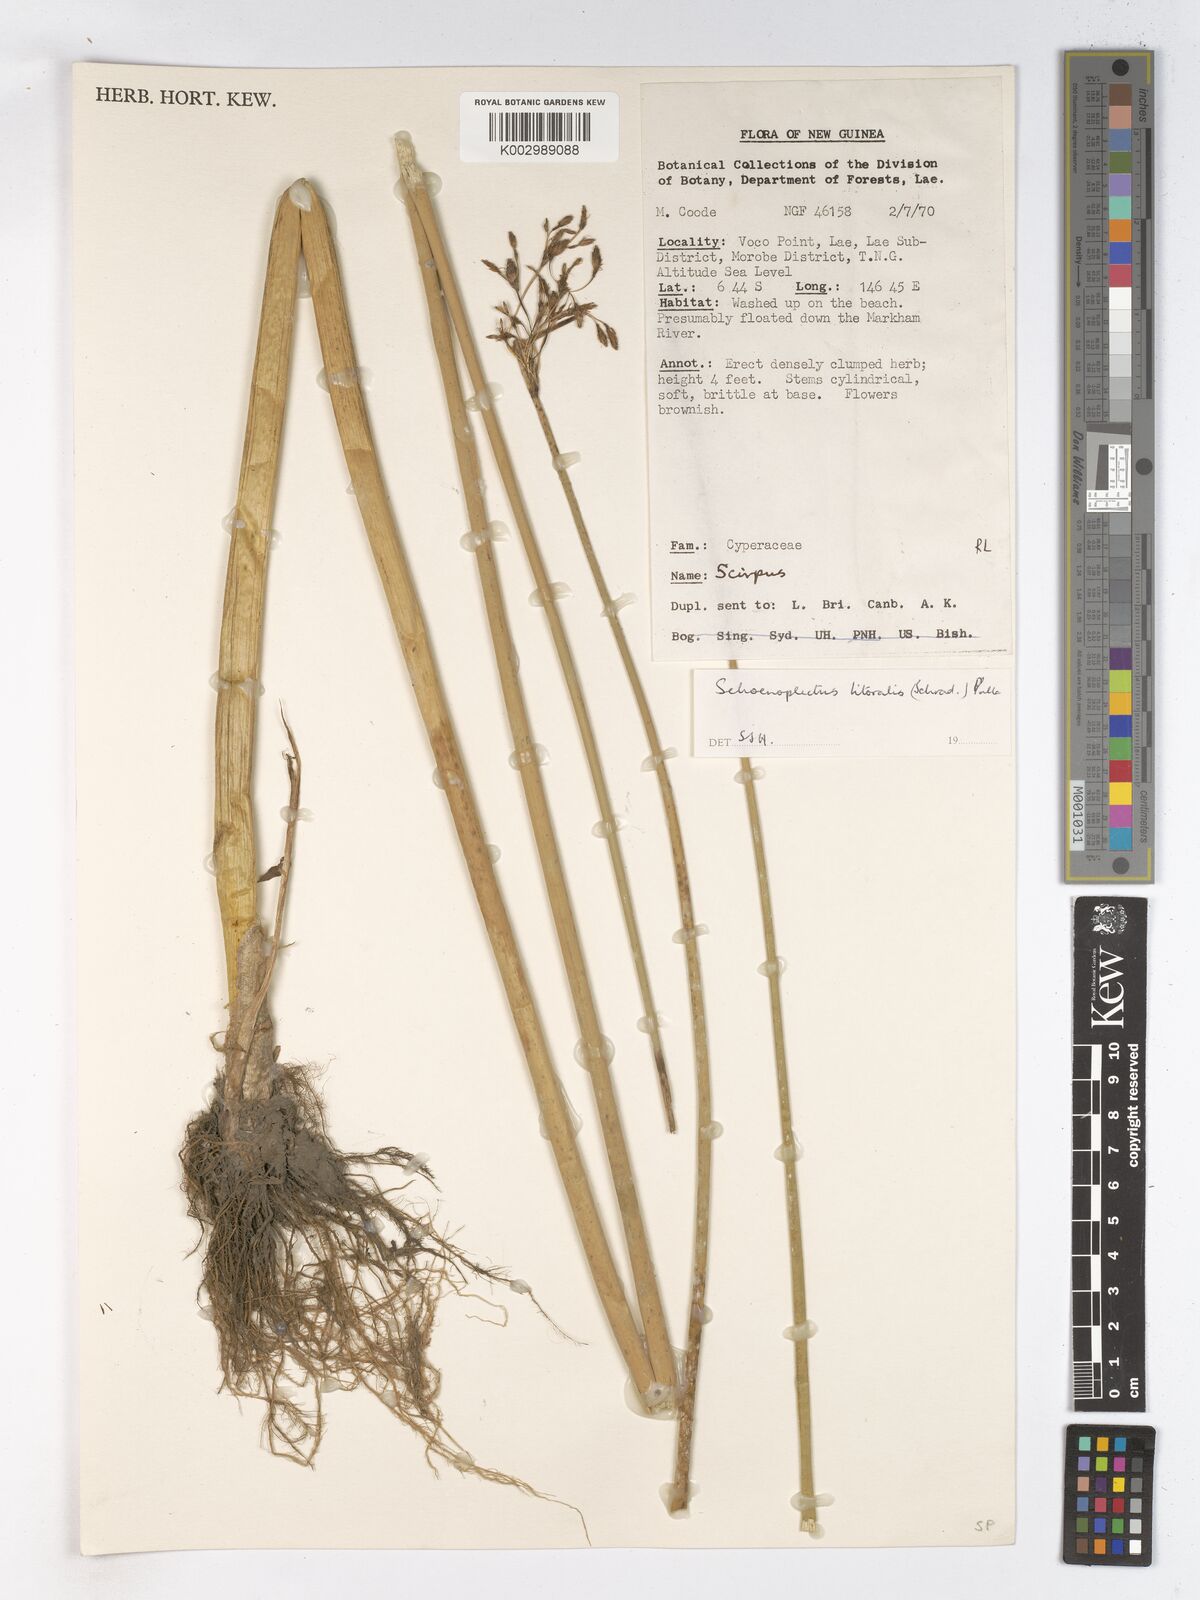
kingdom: Plantae
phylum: Tracheophyta
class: Liliopsida
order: Poales
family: Cyperaceae
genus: Schoenoplectus
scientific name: Schoenoplectus litoralis
